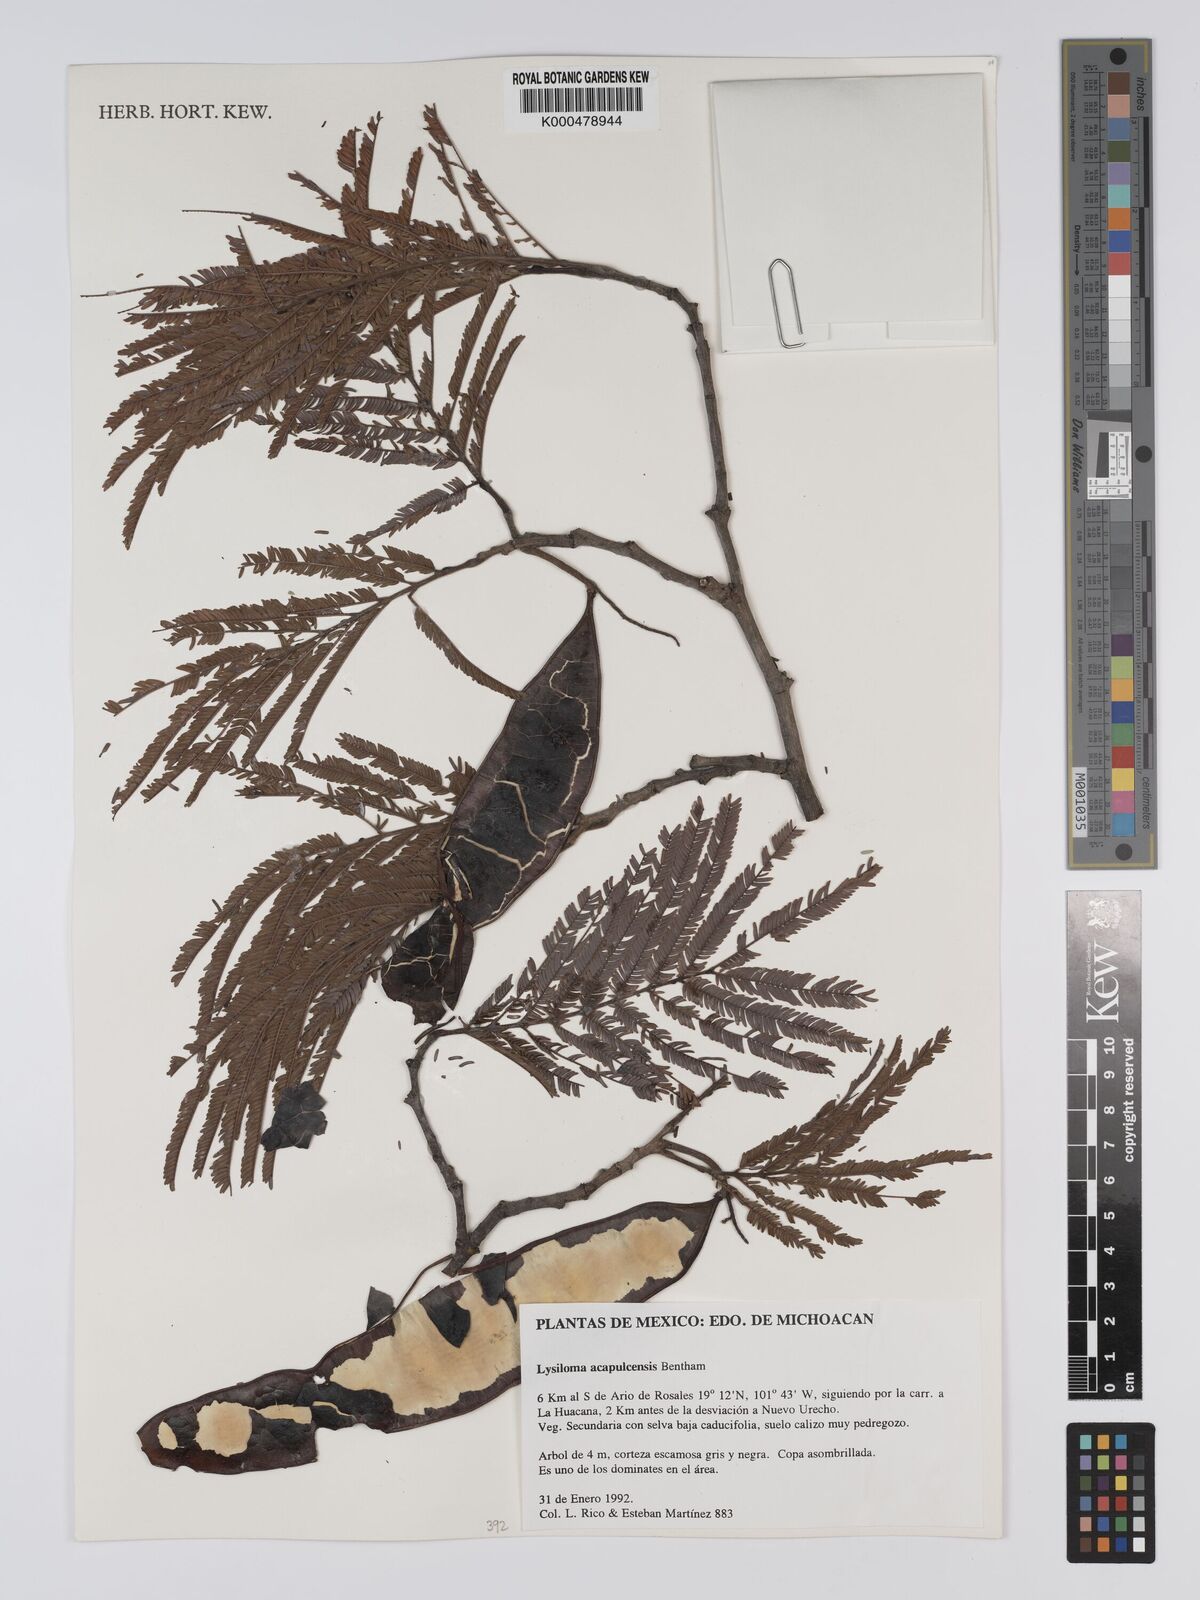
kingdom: Plantae
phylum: Tracheophyta
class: Magnoliopsida
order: Fabales
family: Fabaceae
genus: Lysiloma
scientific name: Lysiloma
